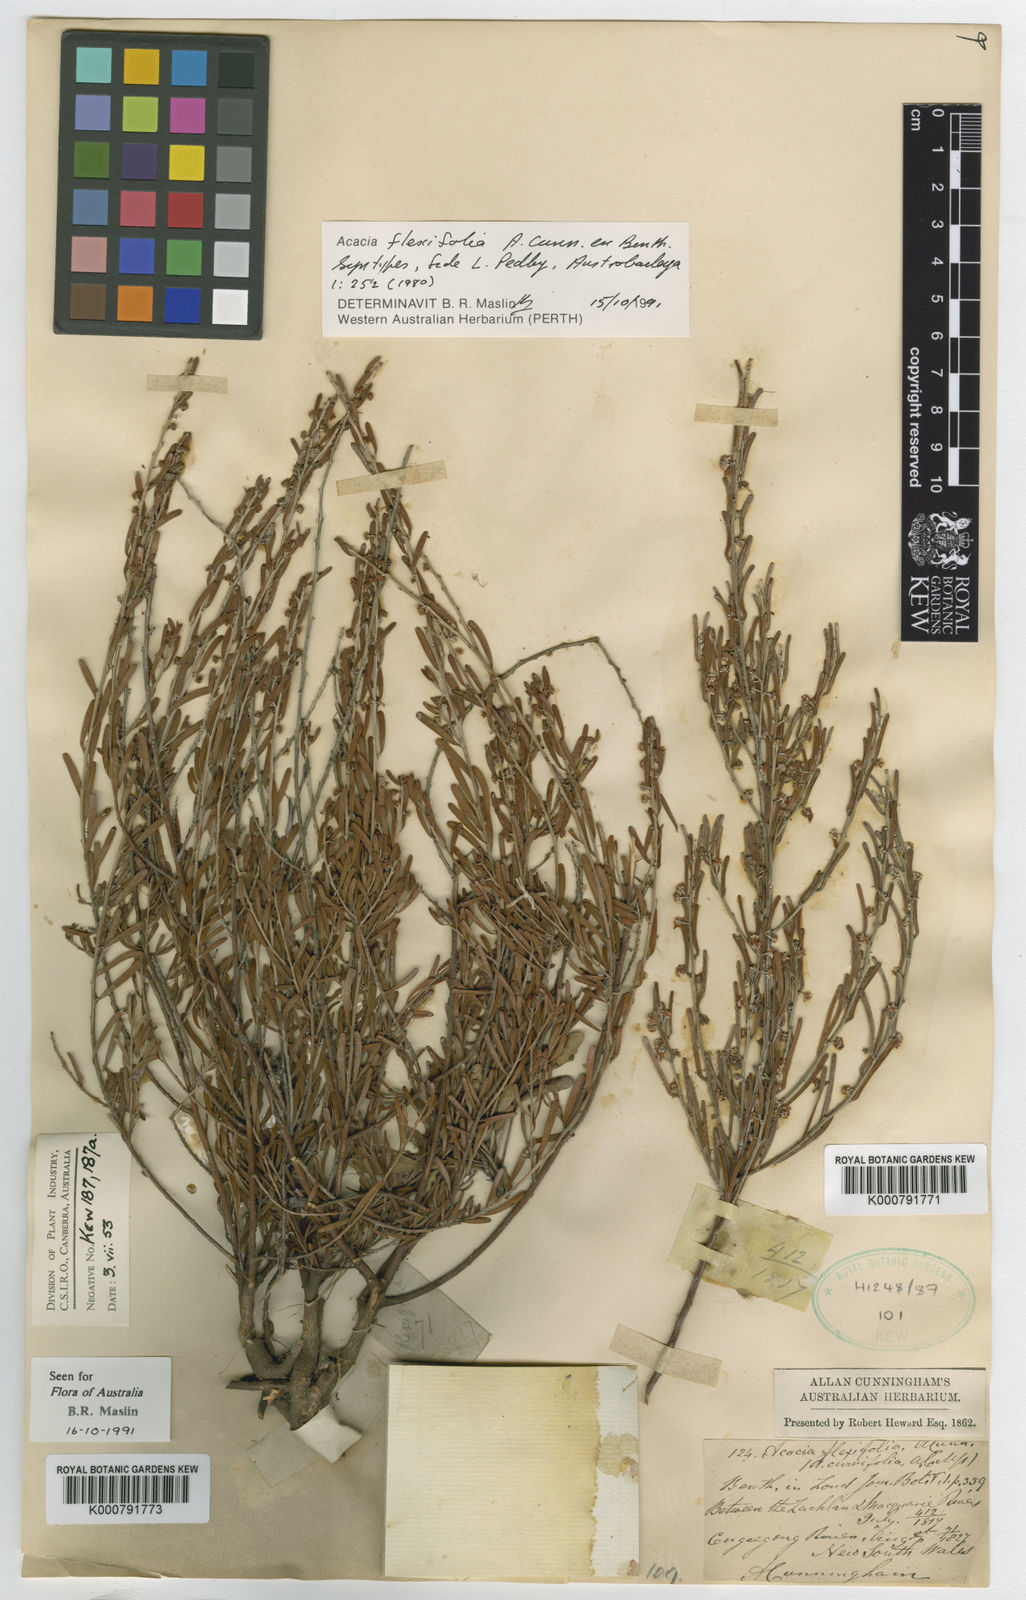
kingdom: Plantae
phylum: Tracheophyta
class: Magnoliopsida
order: Fabales
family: Fabaceae
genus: Acacia
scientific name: Acacia flexifolia
